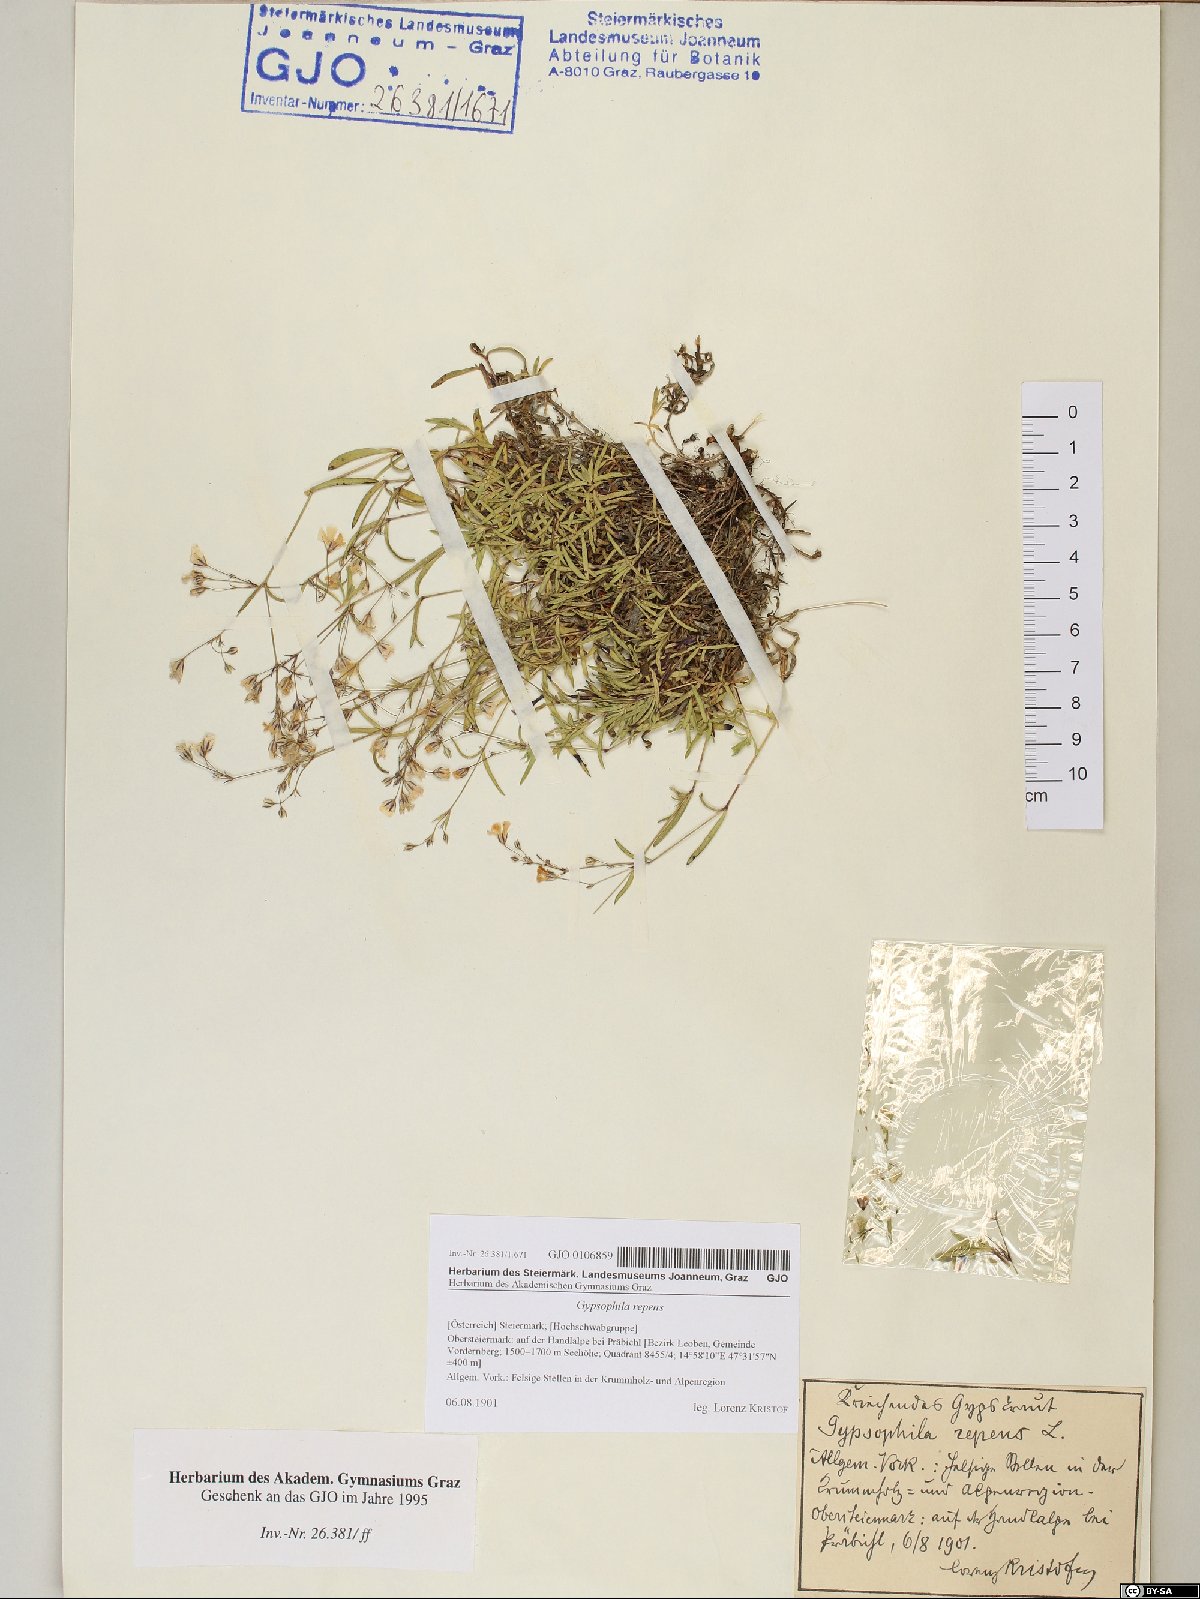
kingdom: Plantae
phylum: Tracheophyta
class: Magnoliopsida
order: Caryophyllales
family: Caryophyllaceae
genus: Gypsophila
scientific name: Gypsophila repens
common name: Creeping baby's-breath
